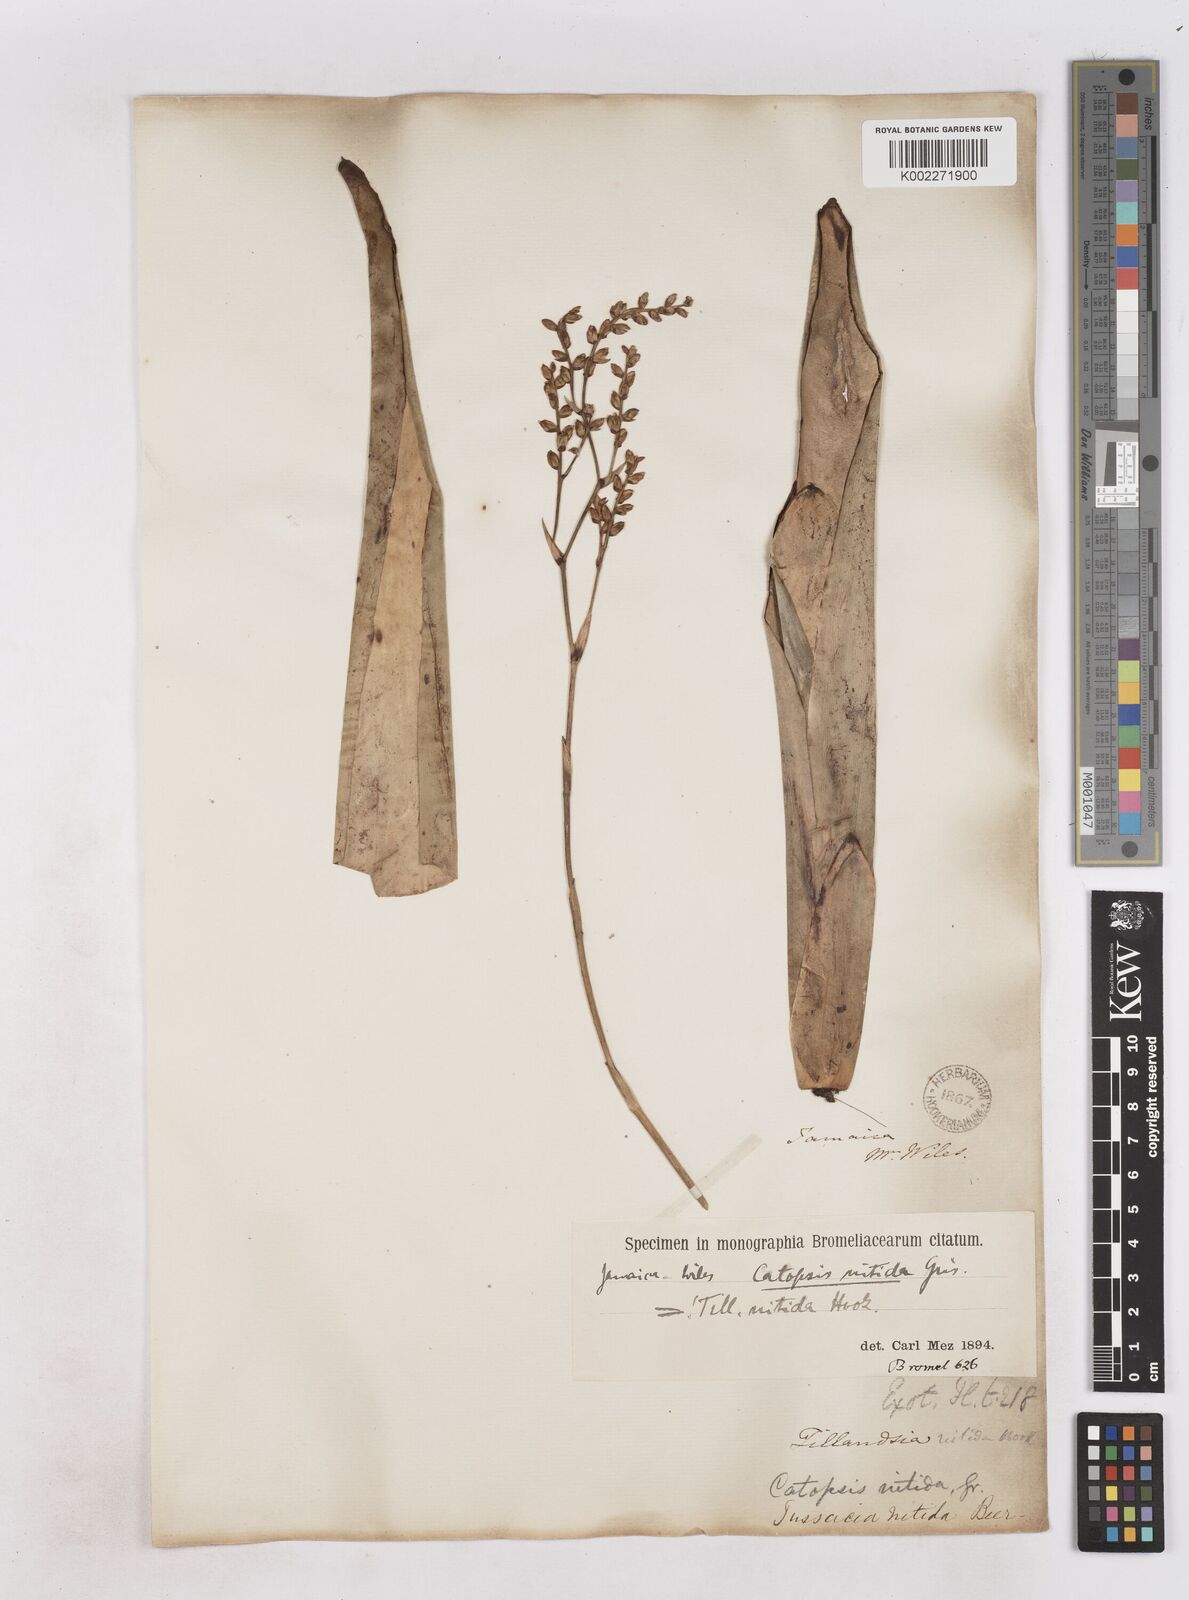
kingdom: Plantae
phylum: Tracheophyta
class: Liliopsida
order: Poales
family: Bromeliaceae
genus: Catopsis
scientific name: Catopsis nitida
